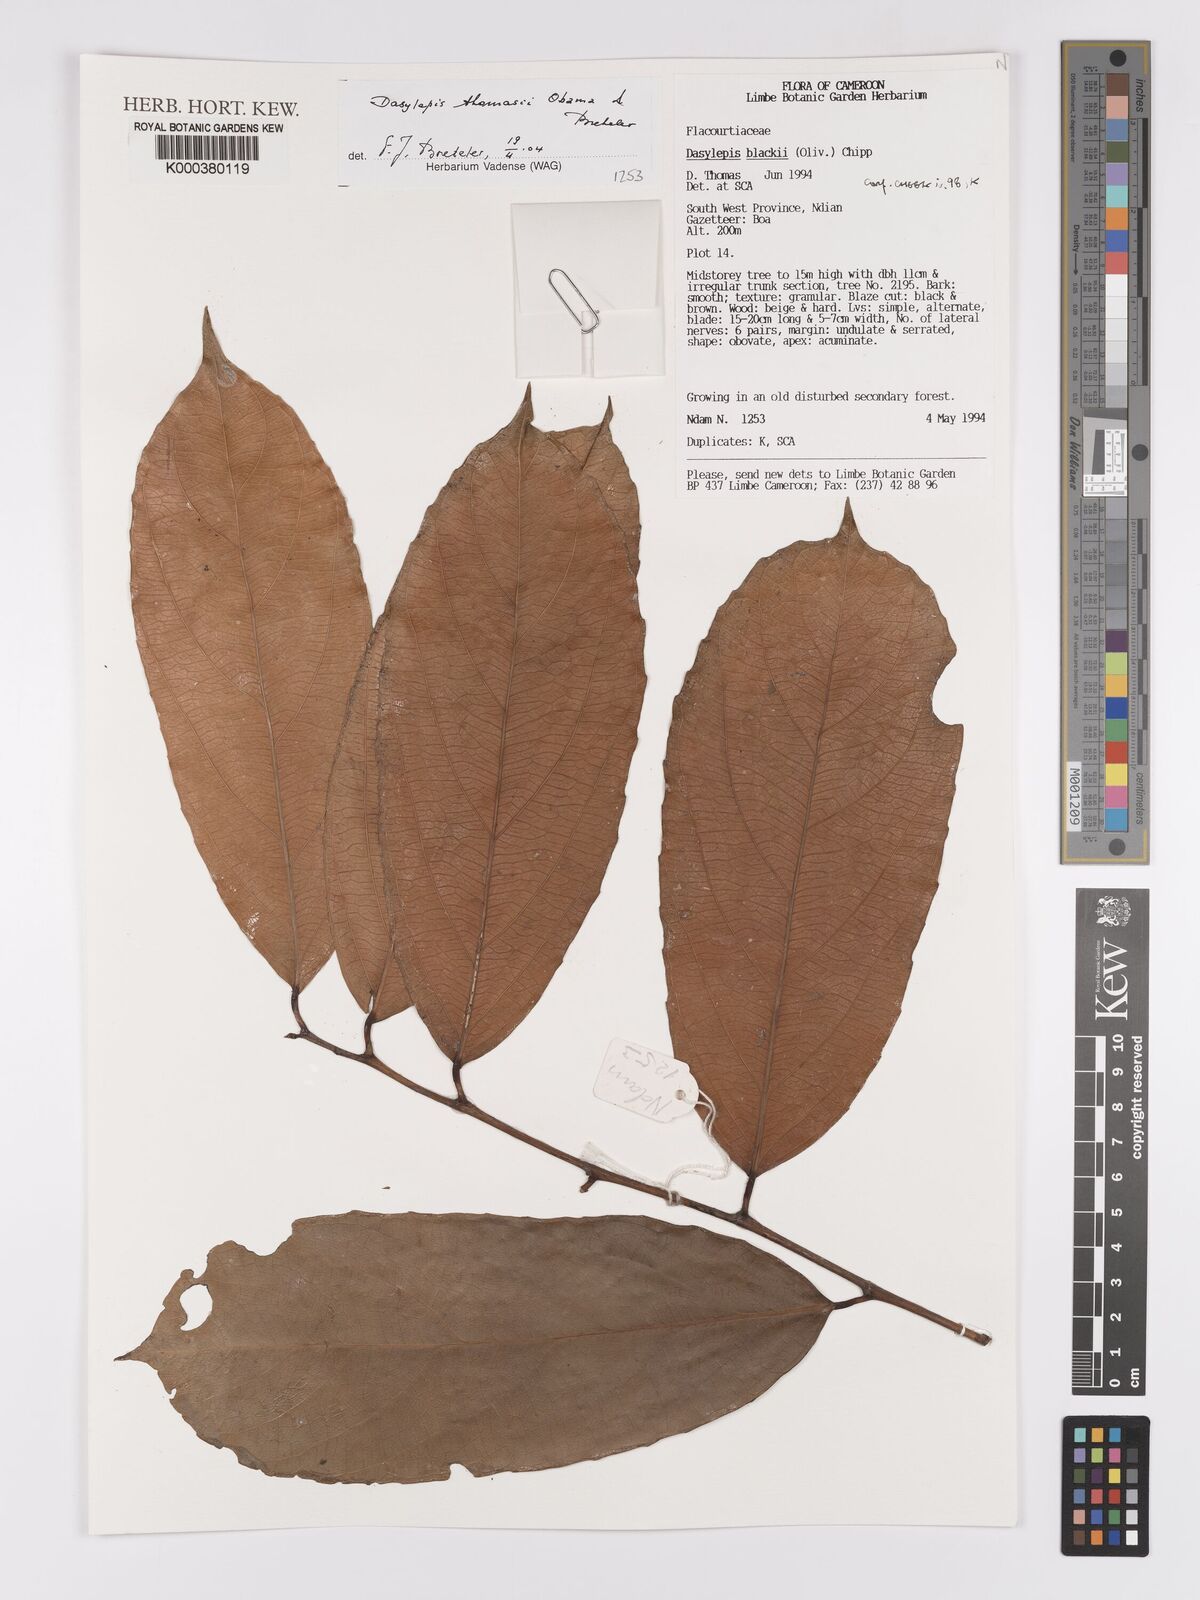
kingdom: Plantae
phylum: Tracheophyta
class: Magnoliopsida
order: Malpighiales
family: Achariaceae
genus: Dasylepis
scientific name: Dasylepis thomasii
